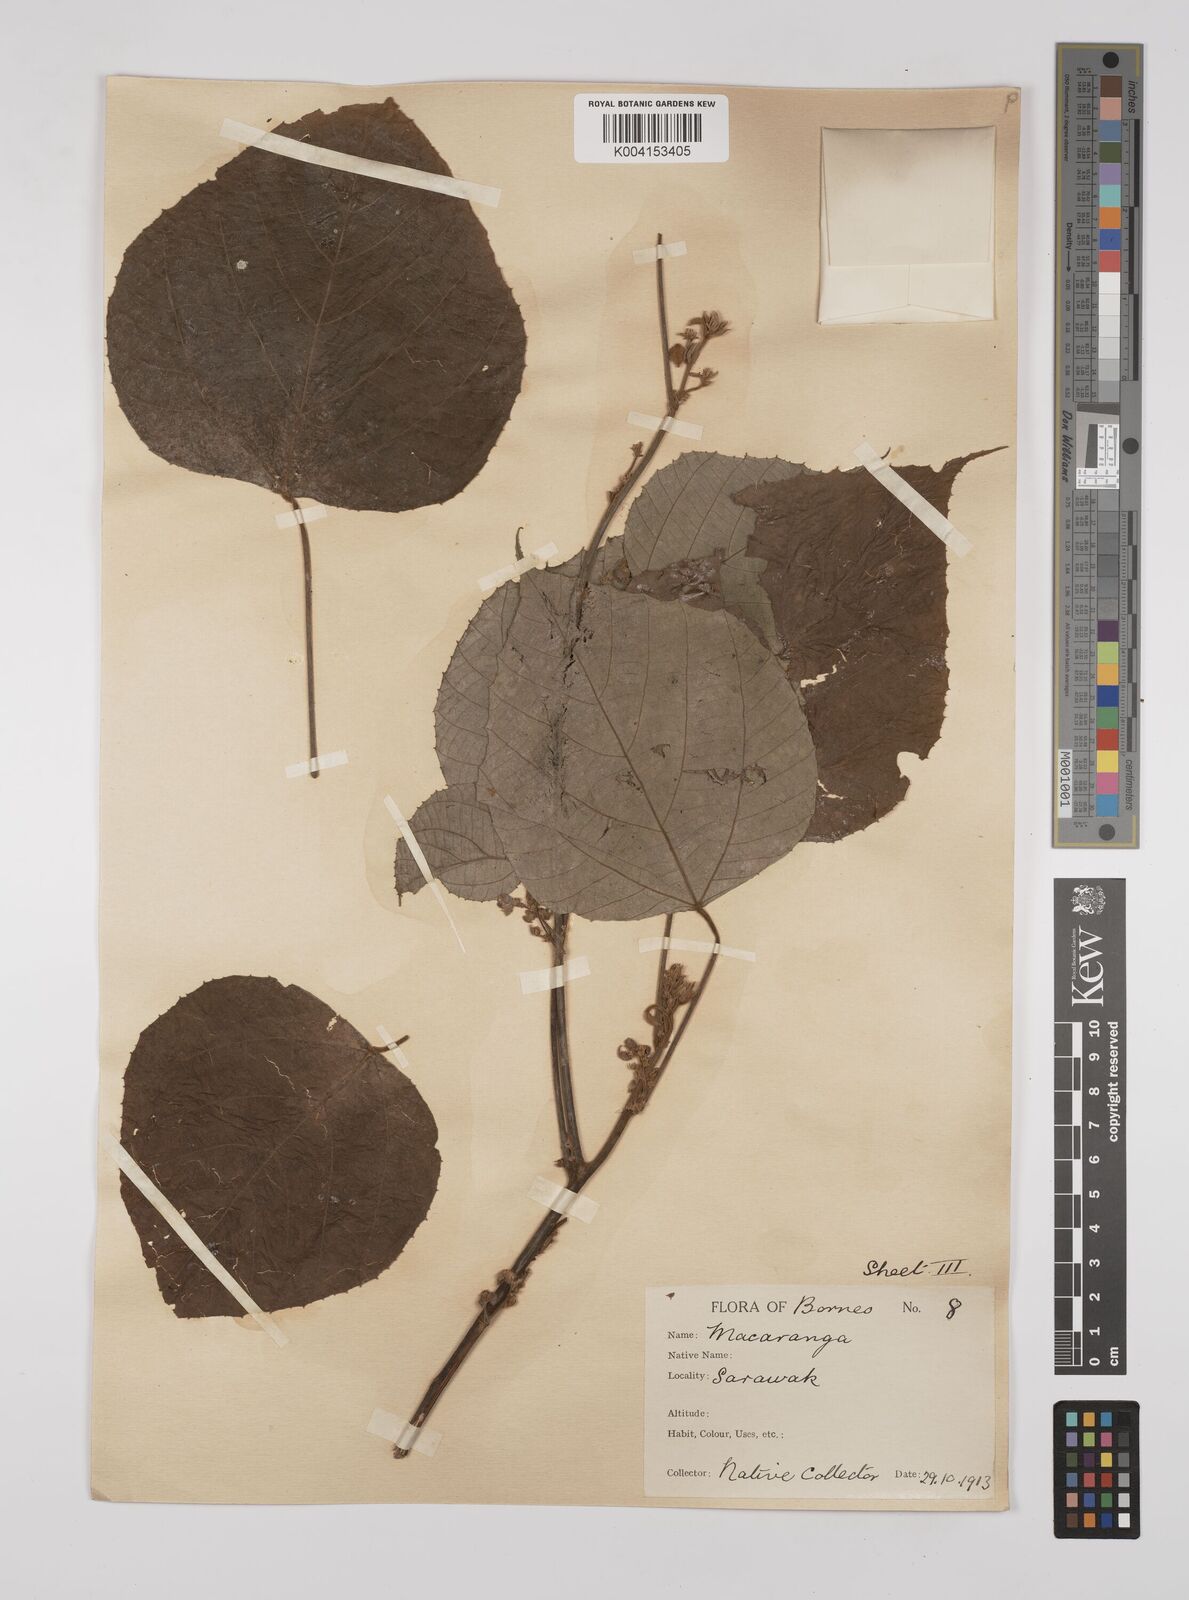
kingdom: Plantae
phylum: Tracheophyta
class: Magnoliopsida
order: Malpighiales
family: Euphorbiaceae
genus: Macaranga
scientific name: Macaranga trichocarpa
